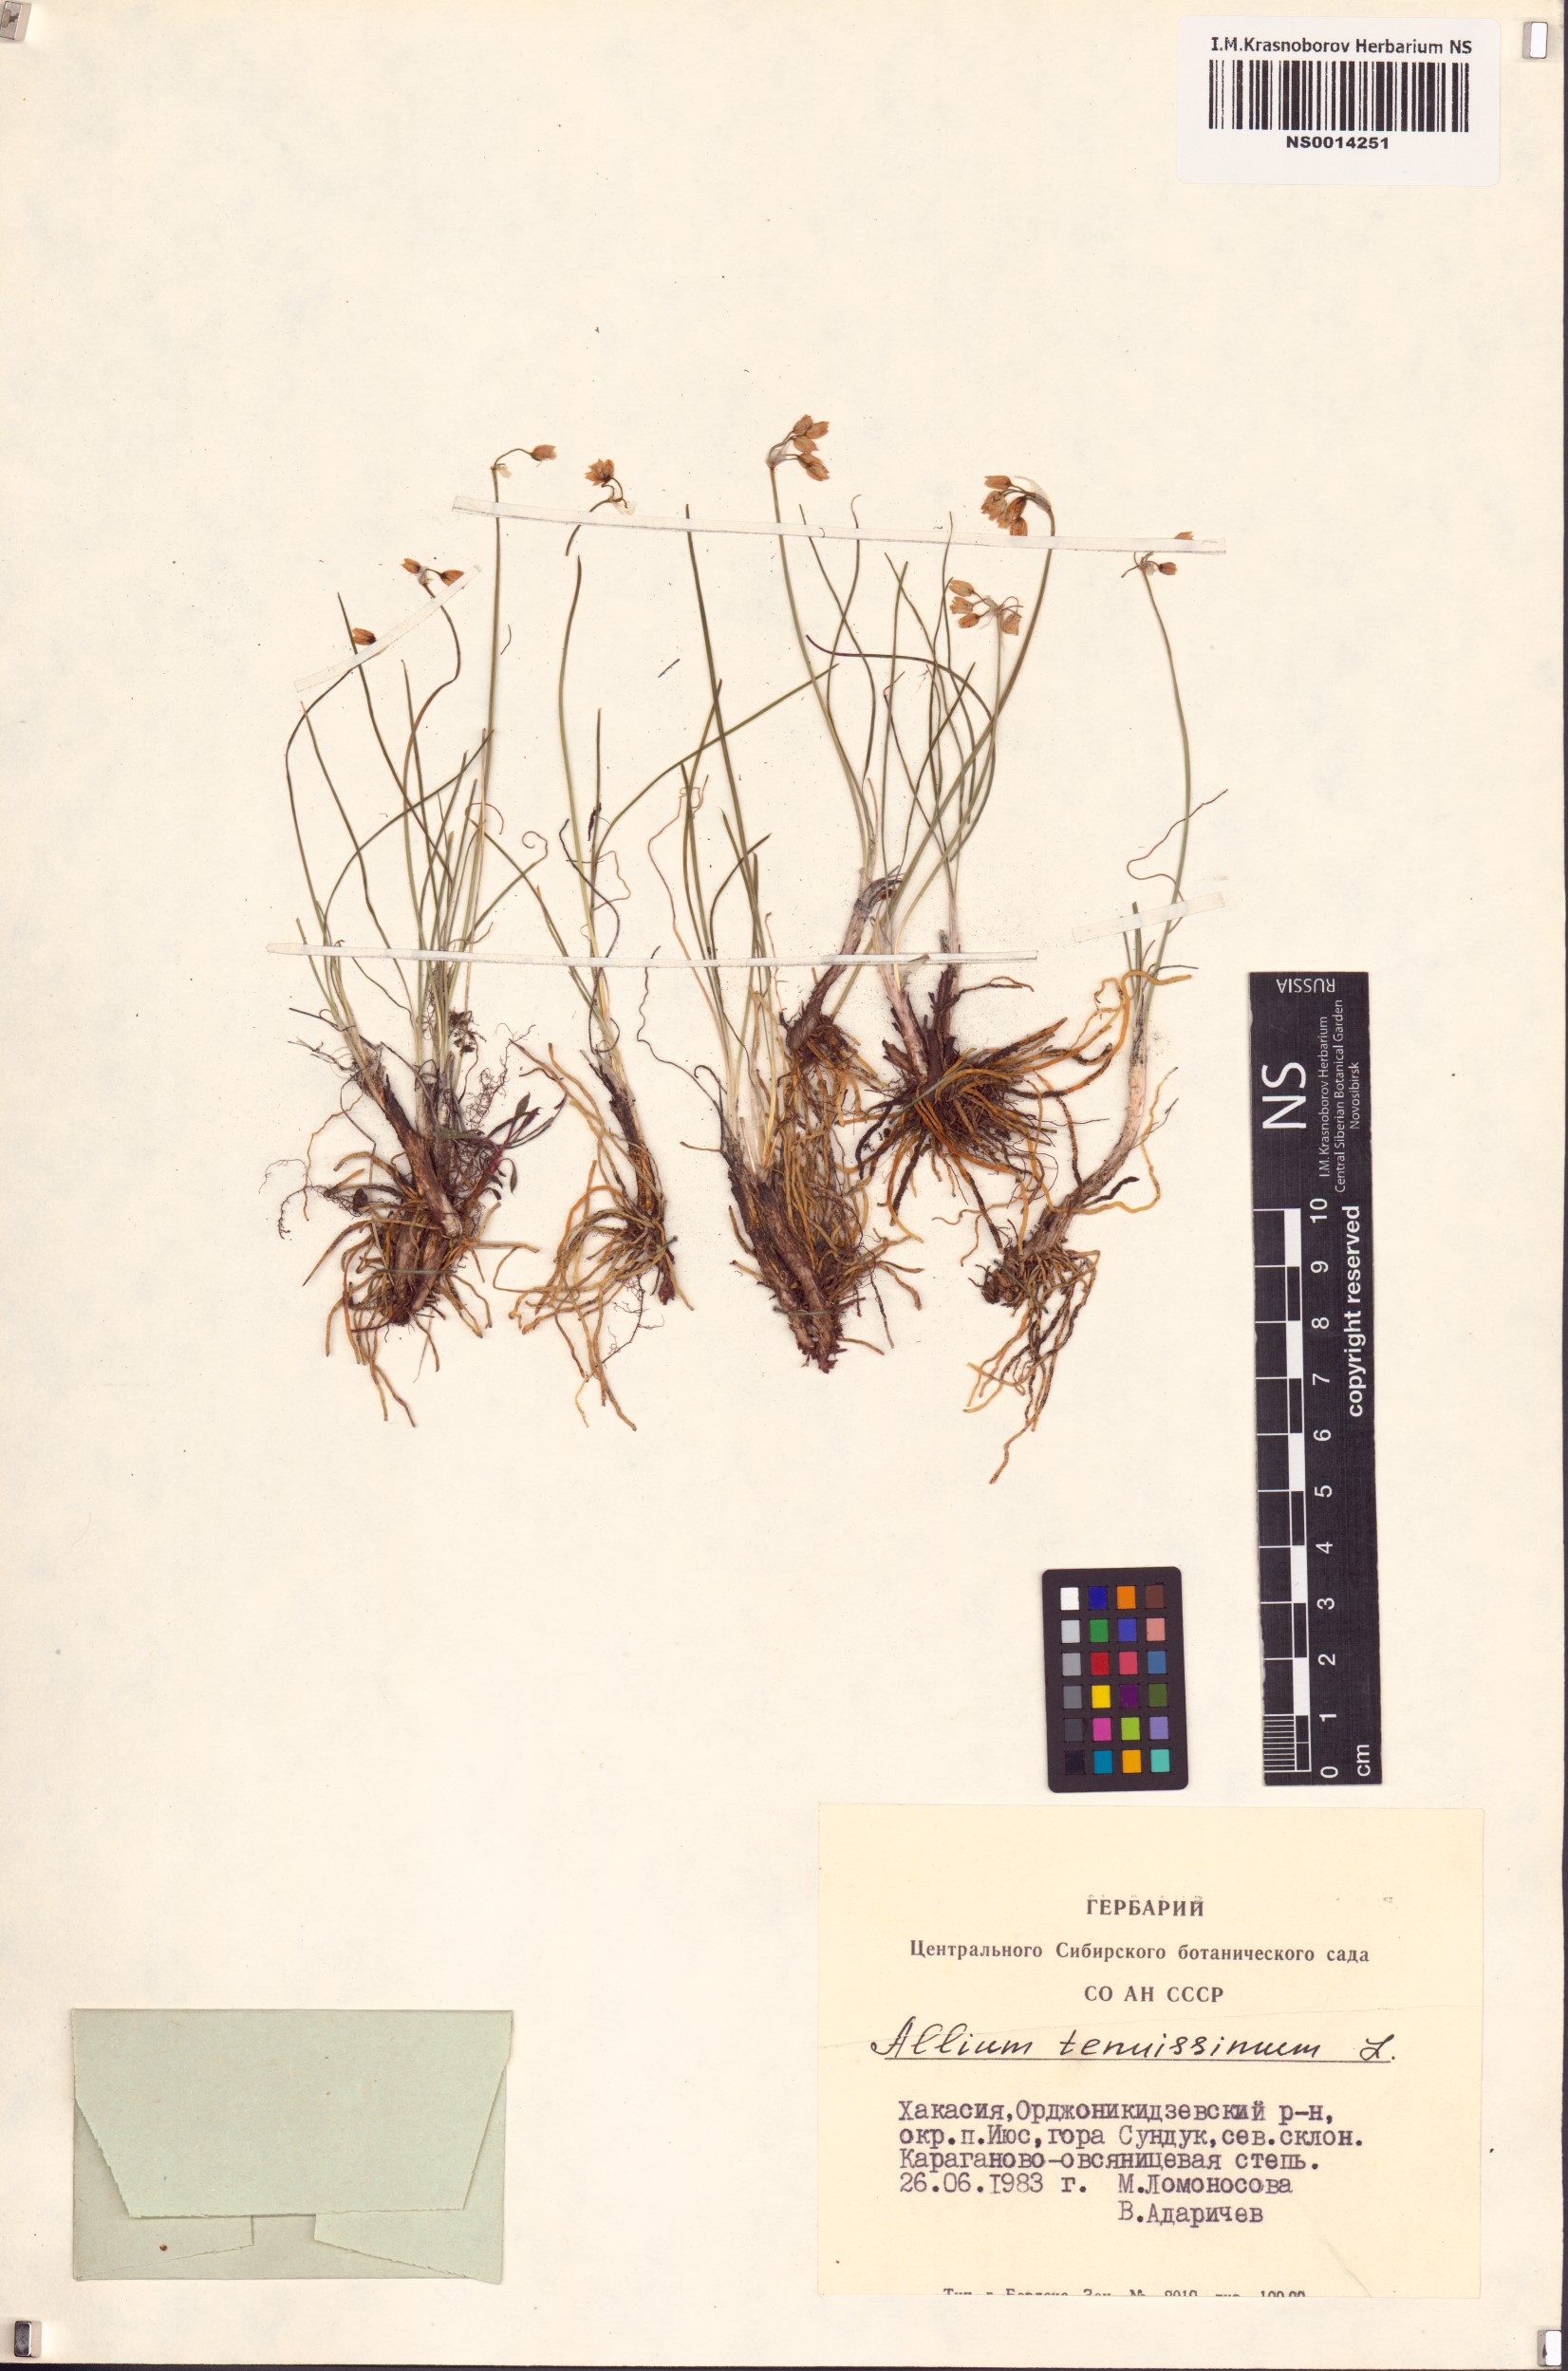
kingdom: Plantae
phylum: Tracheophyta
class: Liliopsida
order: Asparagales
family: Amaryllidaceae
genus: Allium
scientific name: Allium tenuissimum
